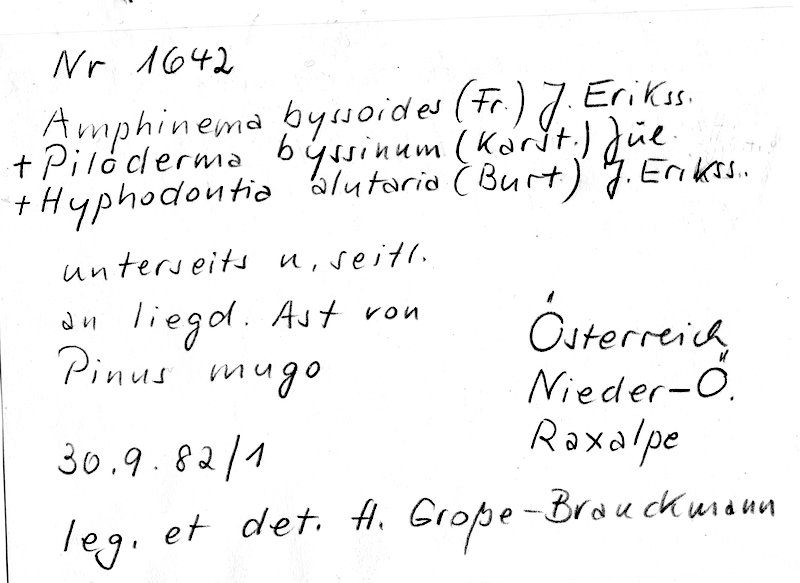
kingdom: Fungi
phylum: Basidiomycota
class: Agaricomycetes
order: Hymenochaetales
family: Hyphodontiaceae
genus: Hyphodontia
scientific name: Hyphodontia alutaria
